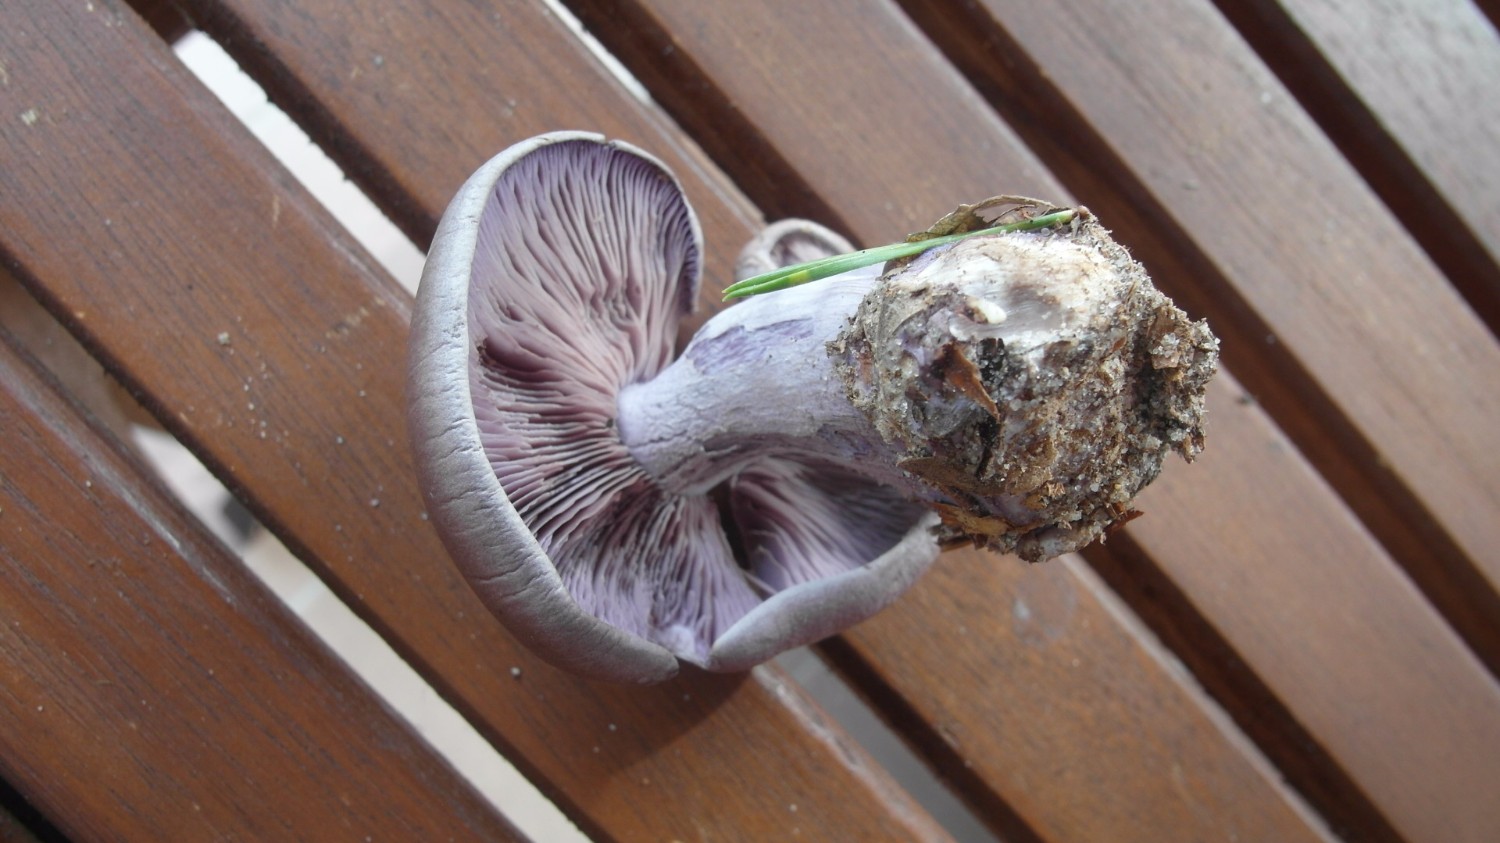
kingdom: Fungi
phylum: Basidiomycota
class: Agaricomycetes
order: Agaricales
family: Tricholomataceae
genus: Lepista
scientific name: Lepista nuda
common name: violet hekseringshat
